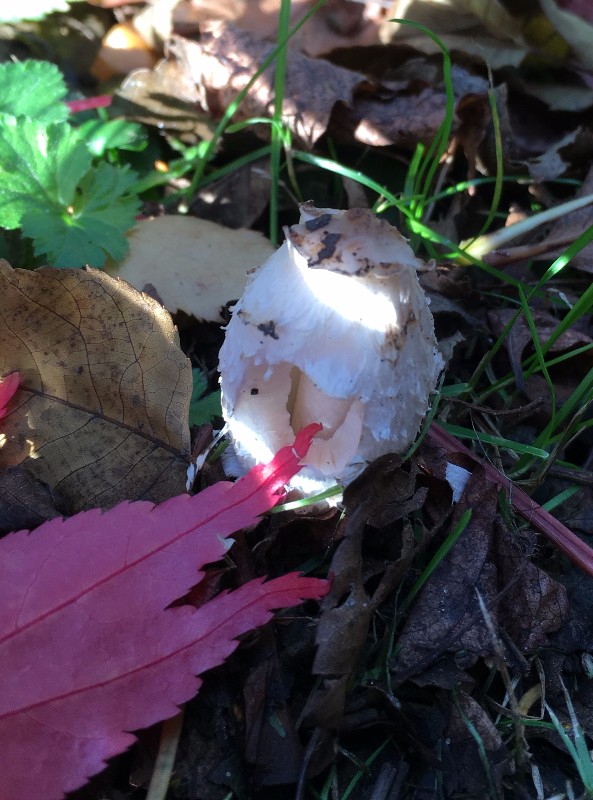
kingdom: Fungi
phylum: Basidiomycota
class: Agaricomycetes
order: Agaricales
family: Agaricaceae
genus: Coprinus
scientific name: Coprinus comatus
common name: stor parykhat
